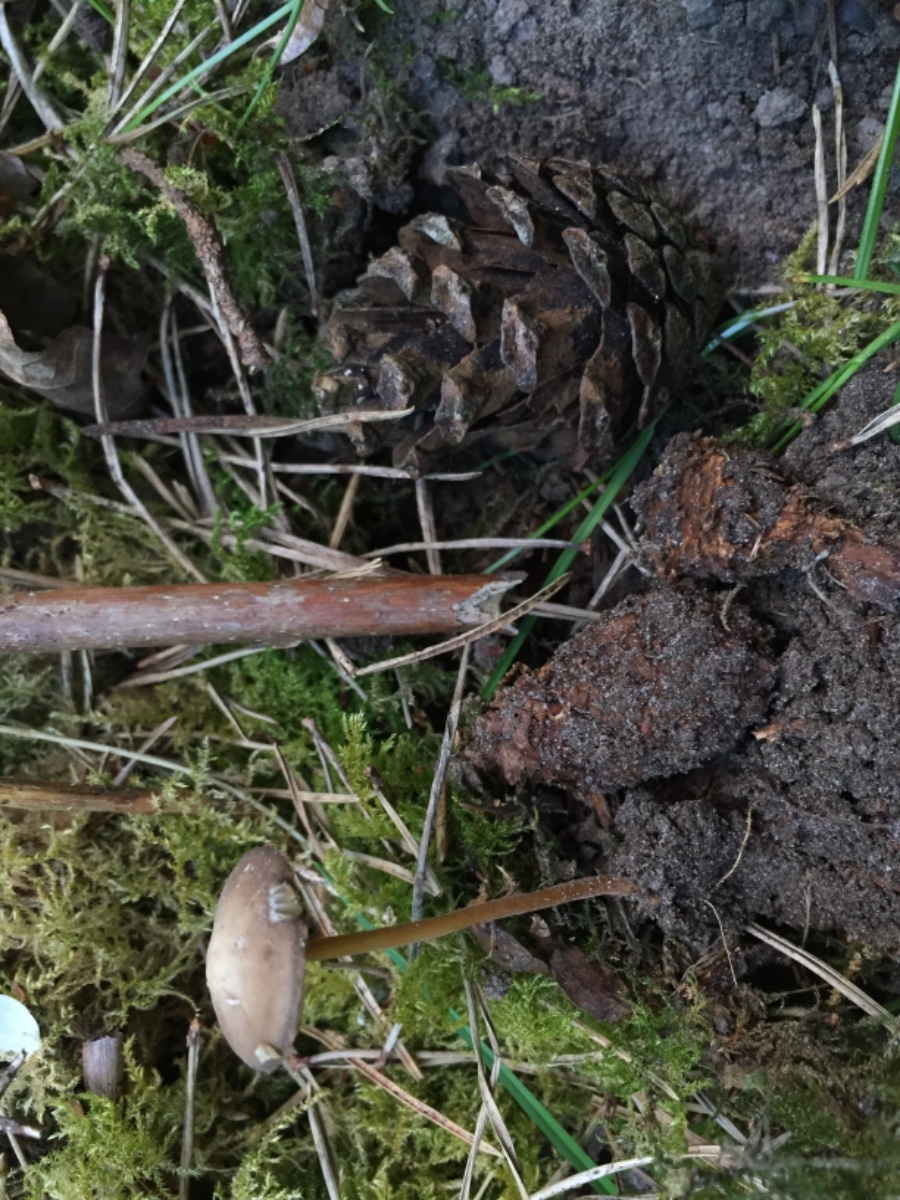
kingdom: Fungi
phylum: Basidiomycota
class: Agaricomycetes
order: Agaricales
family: Physalacriaceae
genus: Strobilurus
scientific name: Strobilurus
